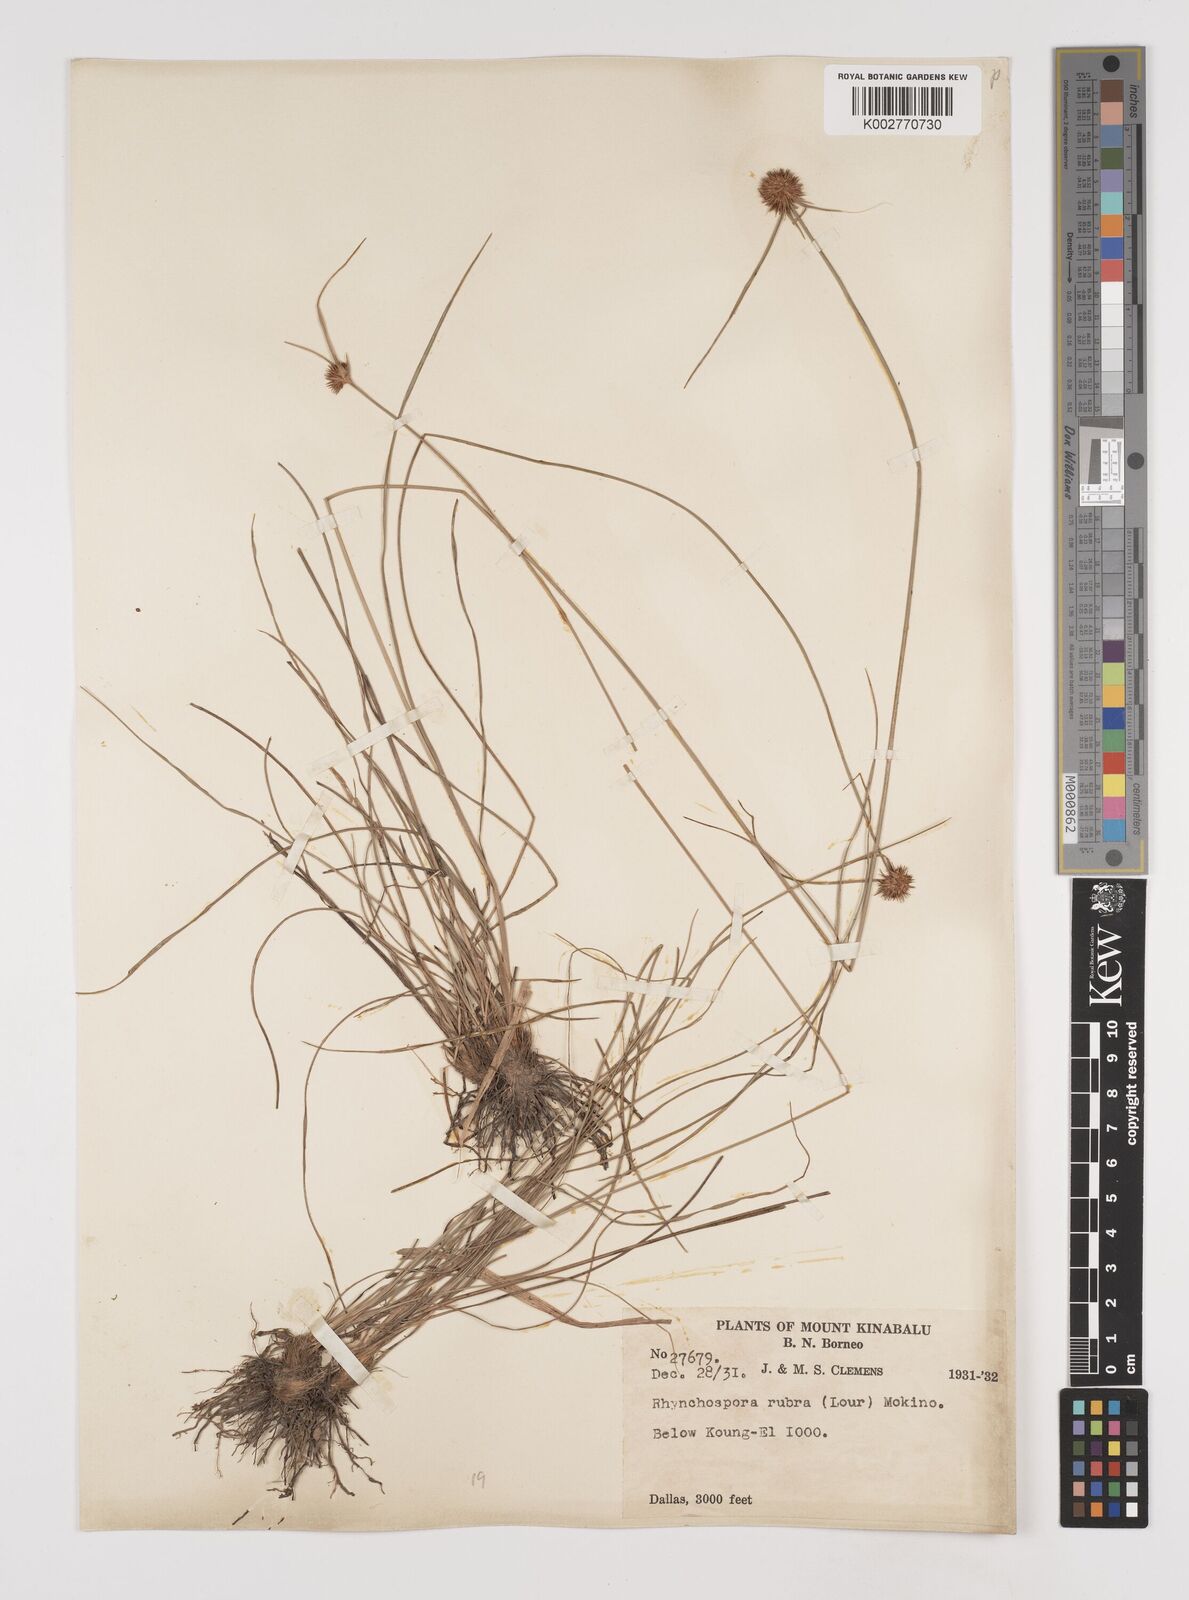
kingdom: Plantae
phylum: Tracheophyta
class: Liliopsida
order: Poales
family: Cyperaceae
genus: Rhynchospora
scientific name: Rhynchospora rubra
